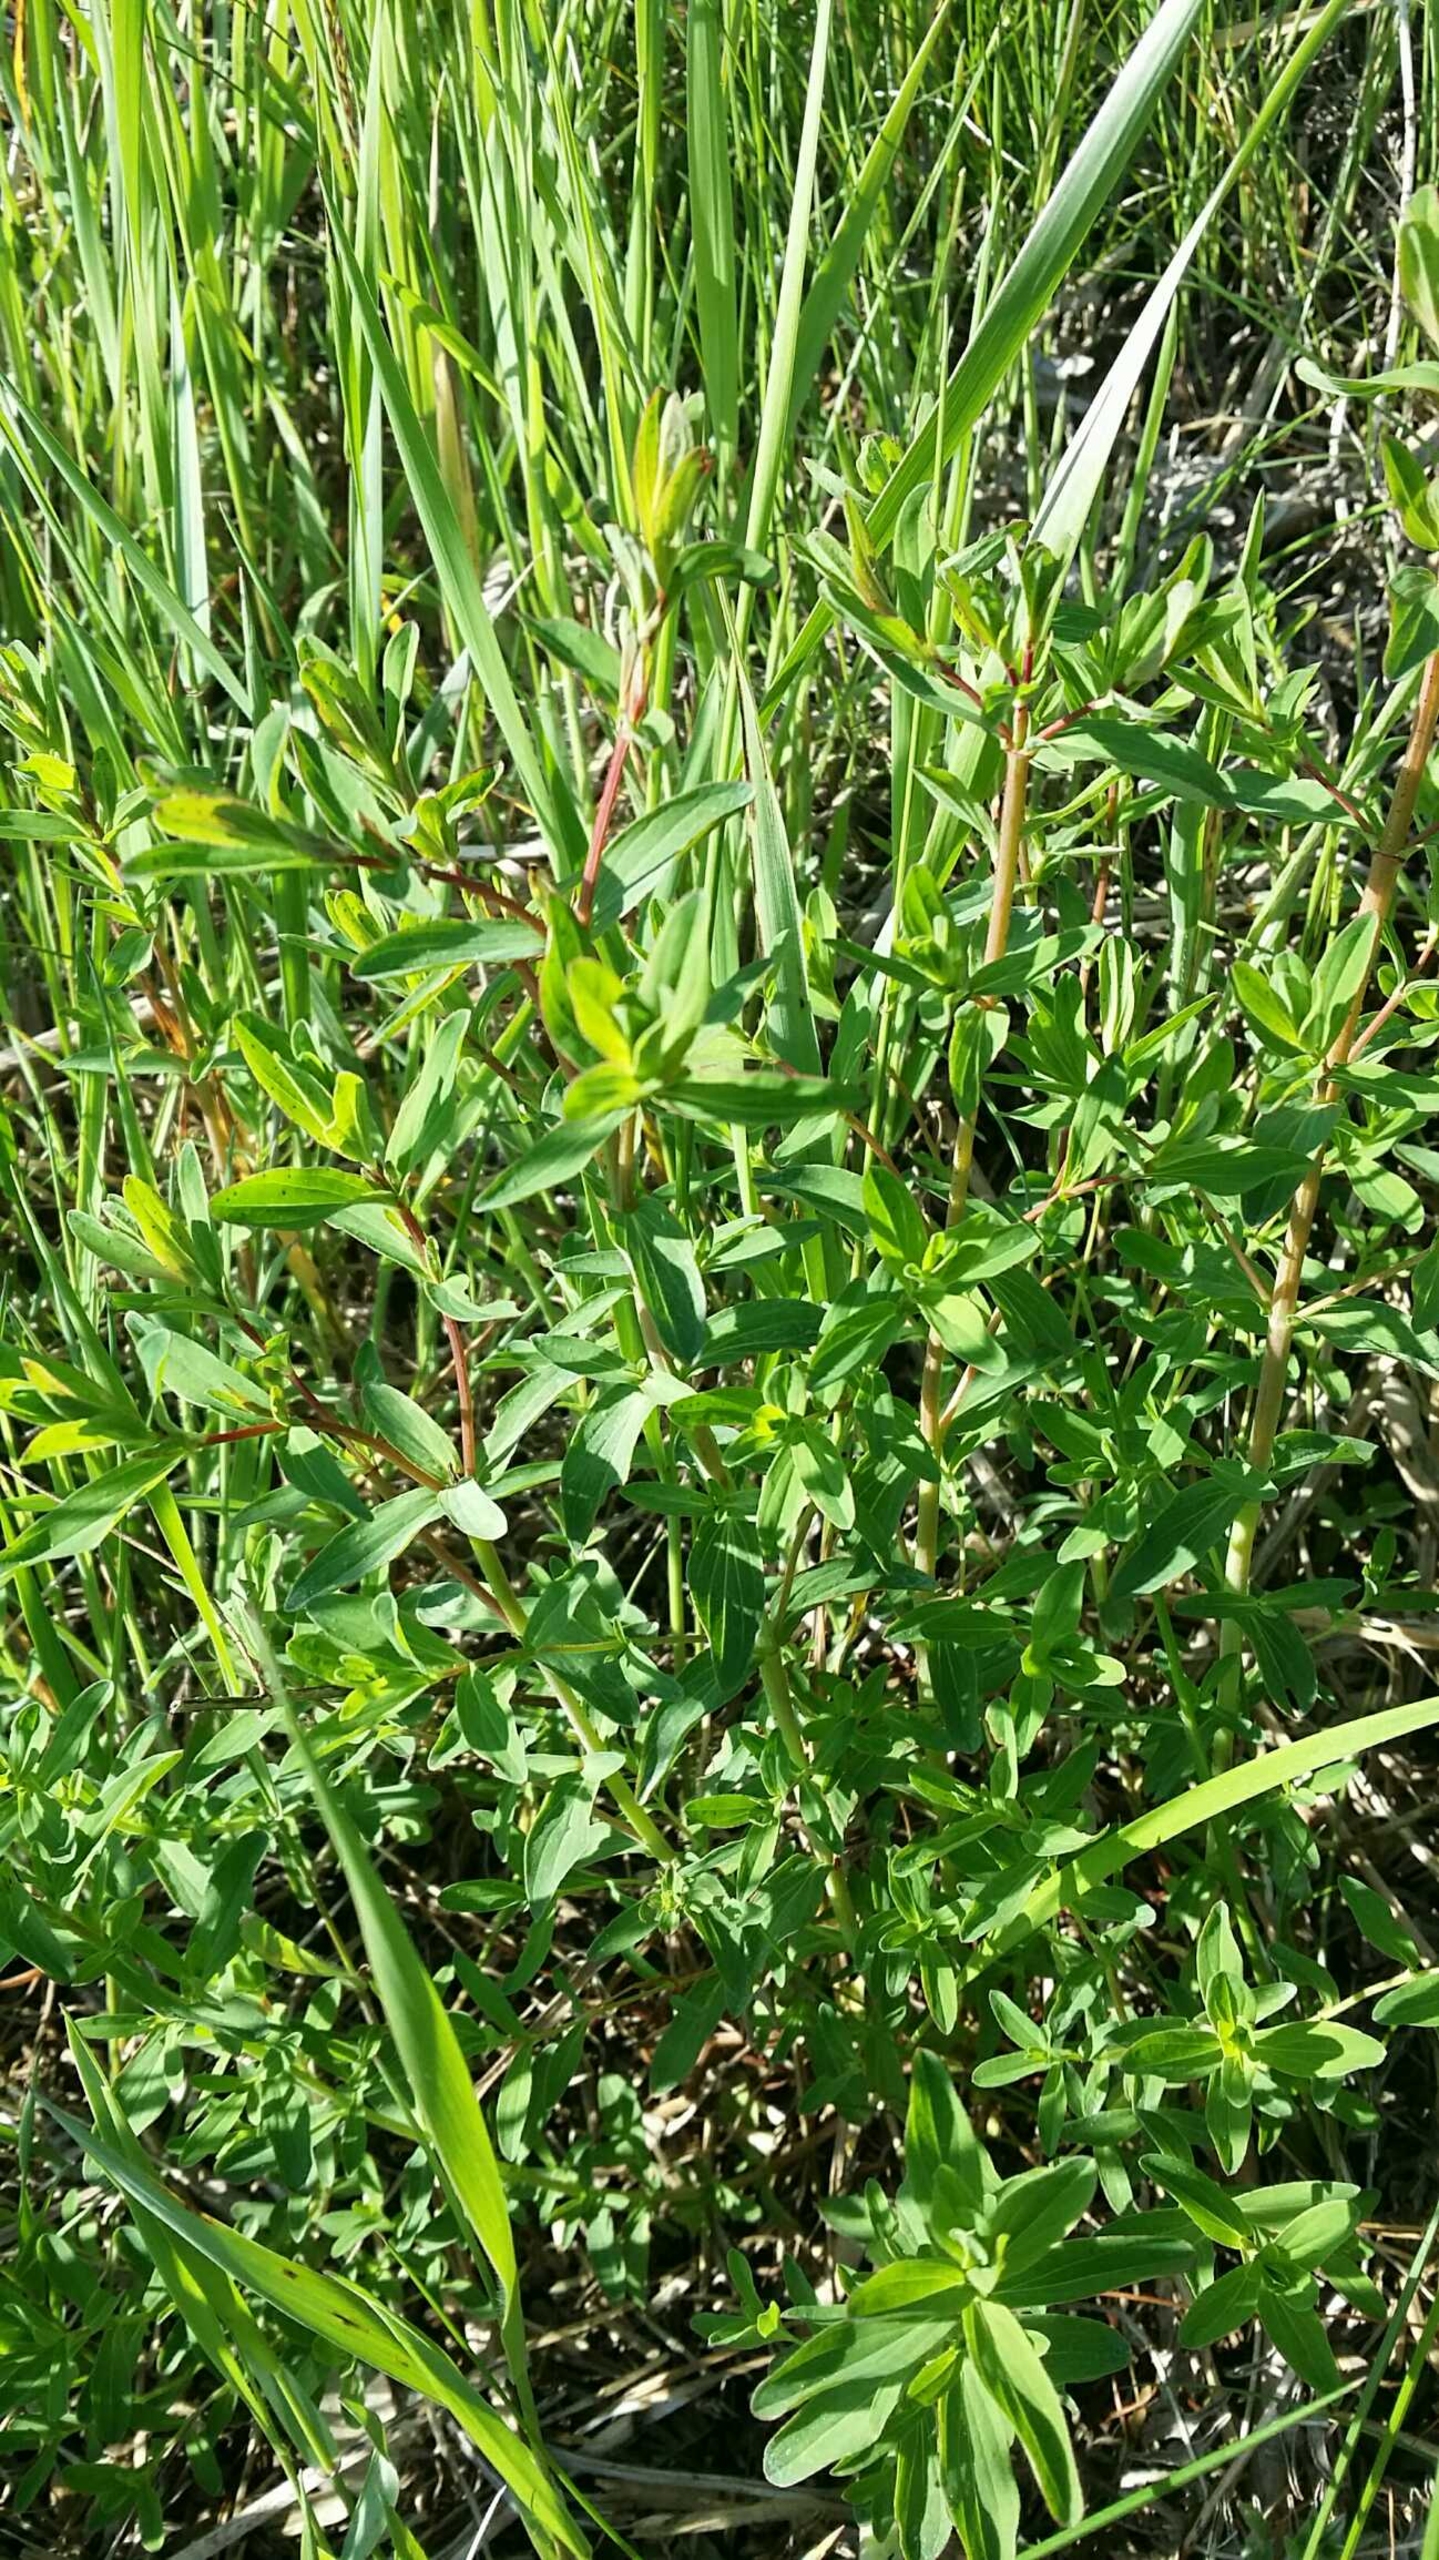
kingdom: Plantae
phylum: Tracheophyta
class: Magnoliopsida
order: Malpighiales
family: Hypericaceae
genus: Hypericum
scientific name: Hypericum perforatum
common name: Prikbladet perikon
